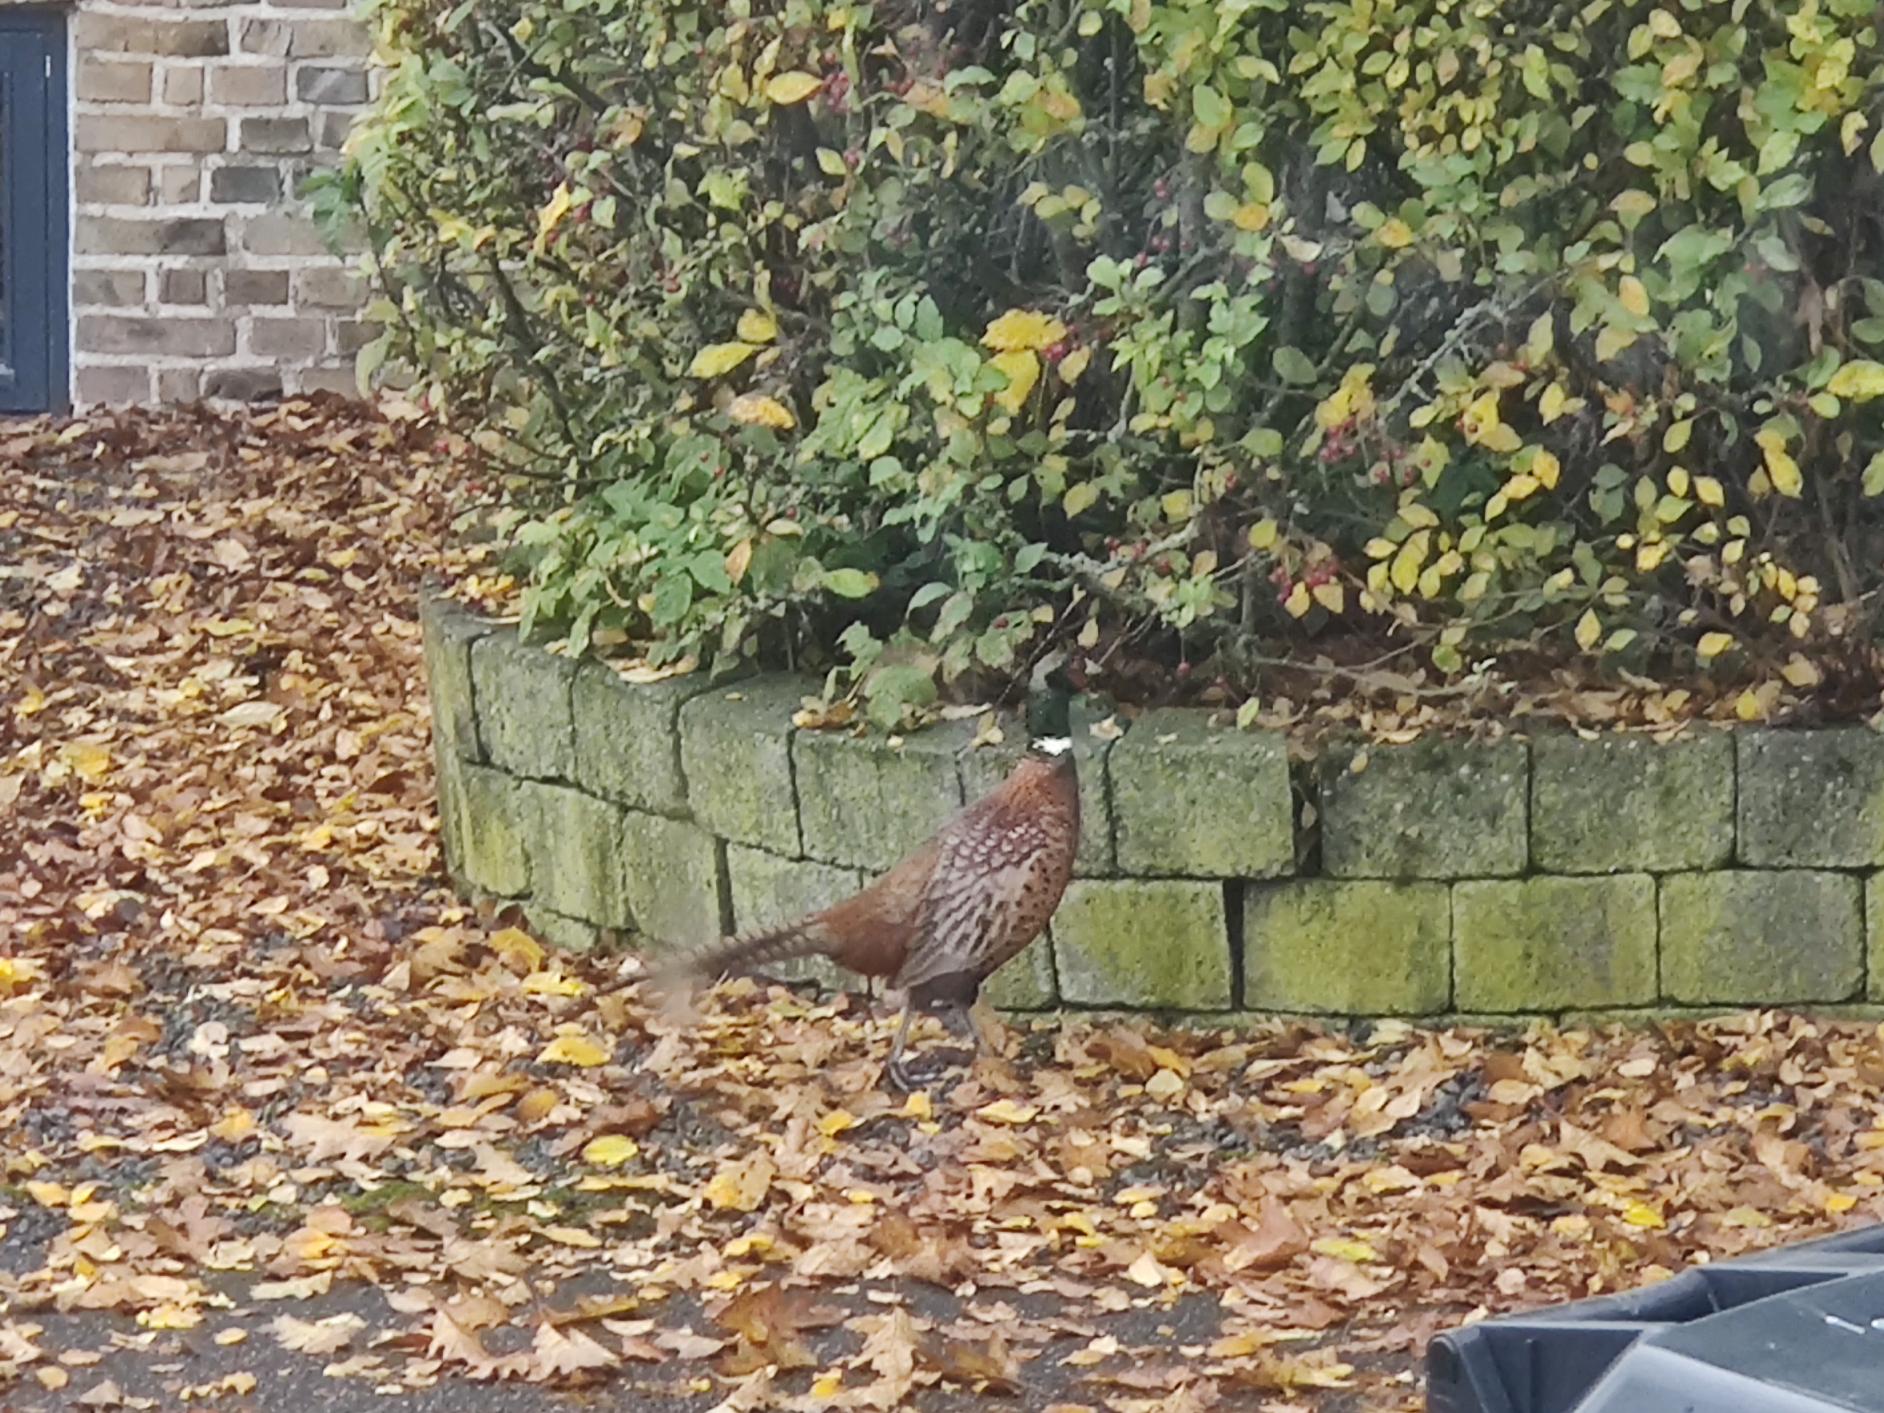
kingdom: Animalia
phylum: Chordata
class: Aves
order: Galliformes
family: Phasianidae
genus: Phasianus
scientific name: Phasianus colchicus
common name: Fasan
